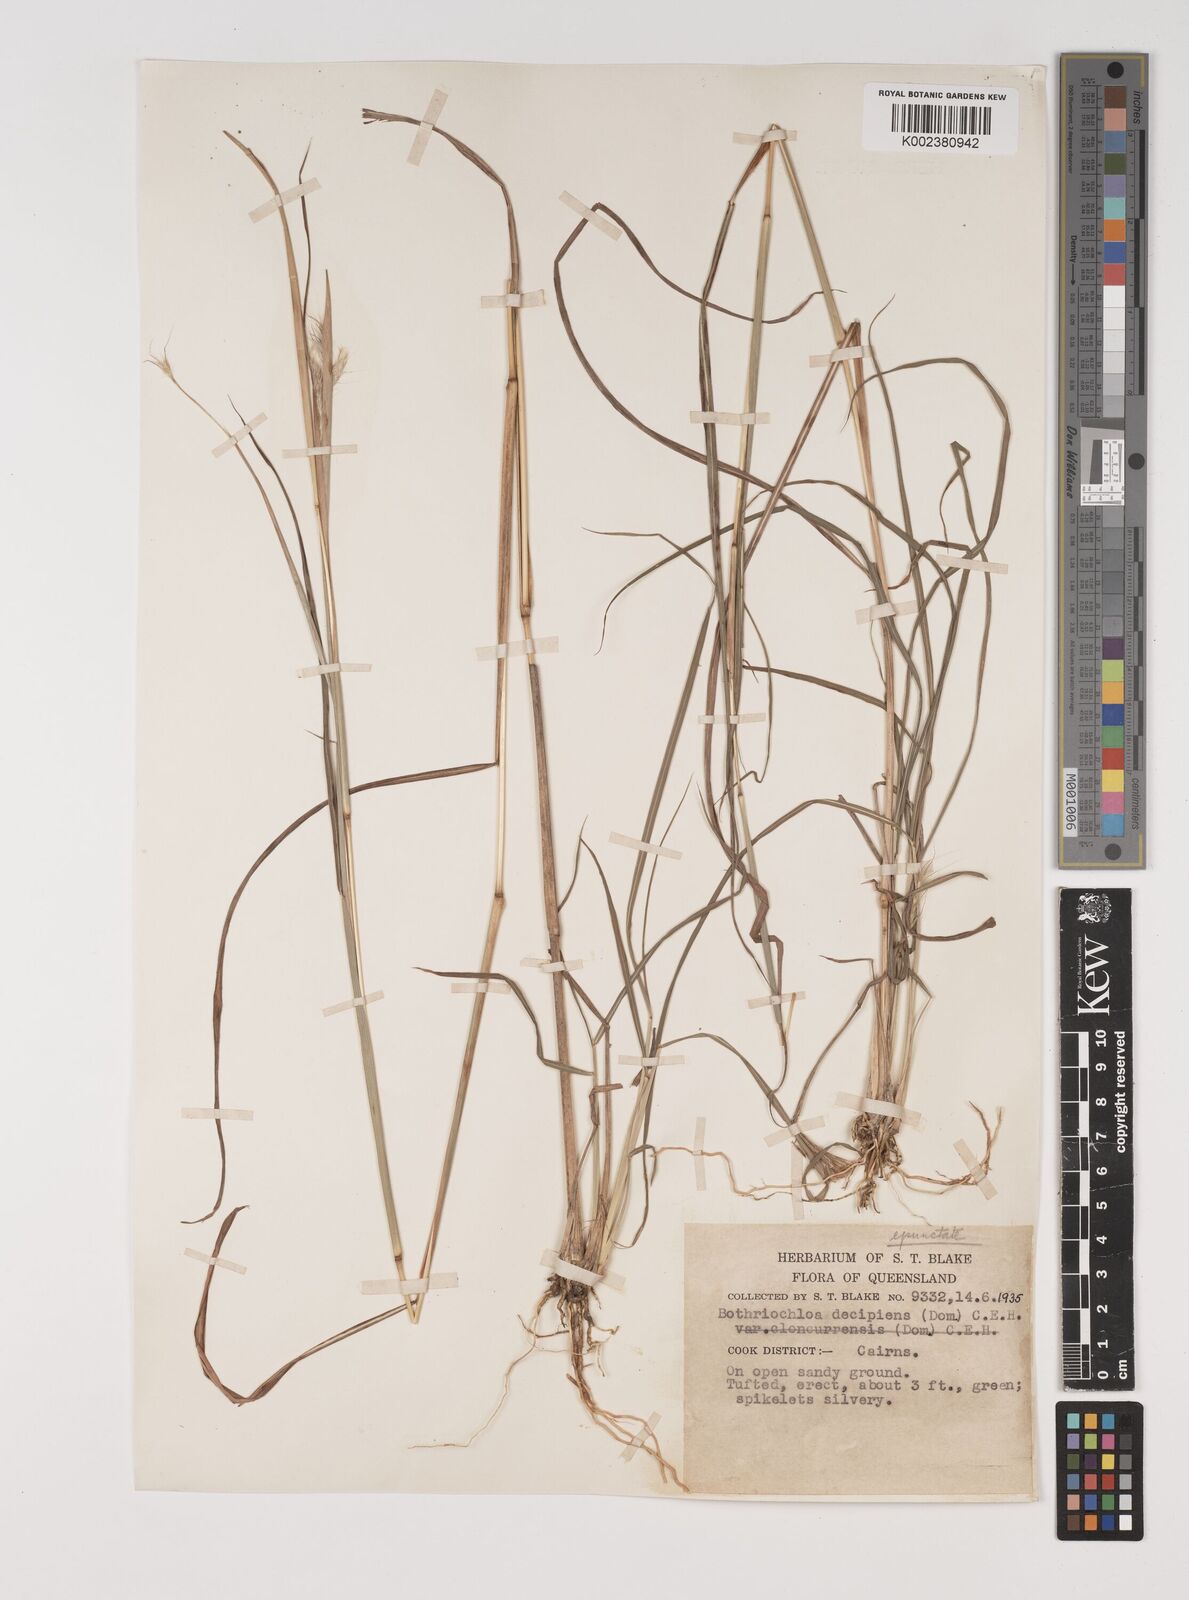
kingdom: Plantae
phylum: Tracheophyta
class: Liliopsida
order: Poales
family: Poaceae
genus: Bothriochloa
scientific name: Bothriochloa decipiens
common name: Pitted-bluegrass
